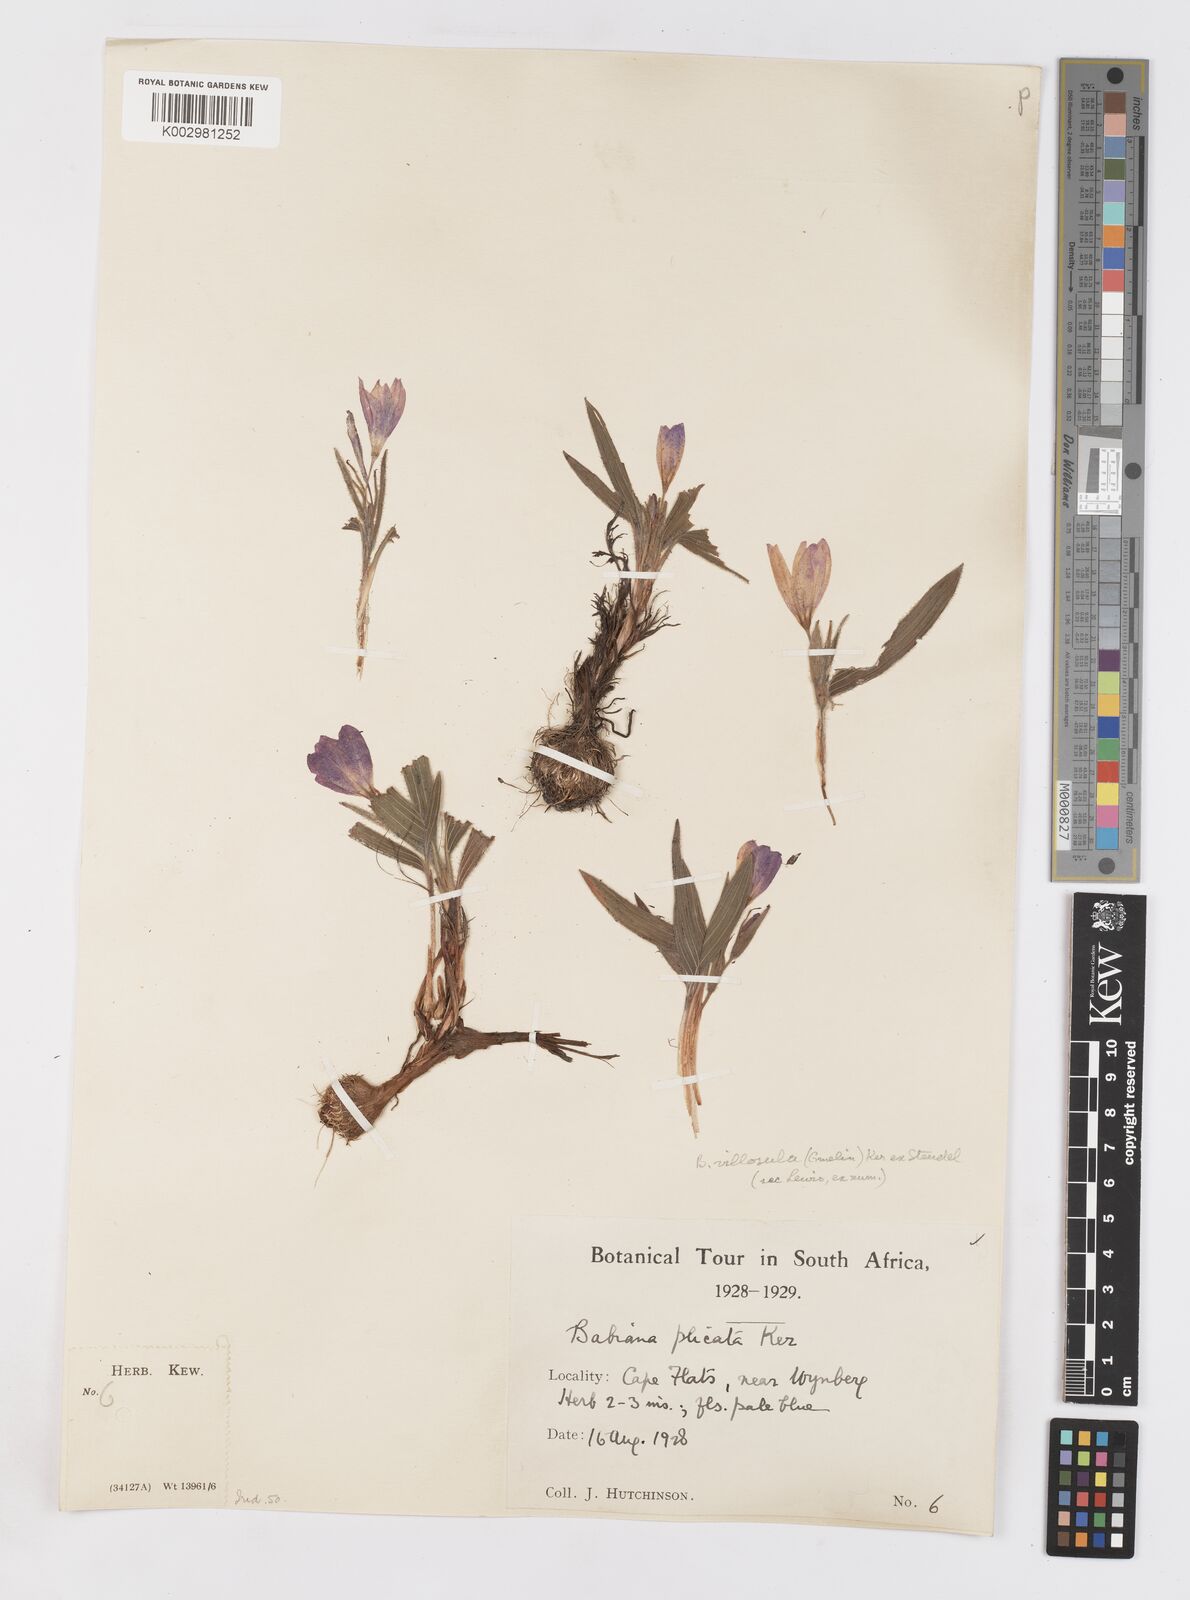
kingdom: Plantae
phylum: Tracheophyta
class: Liliopsida
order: Asparagales
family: Iridaceae
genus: Babiana
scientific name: Babiana villosula
